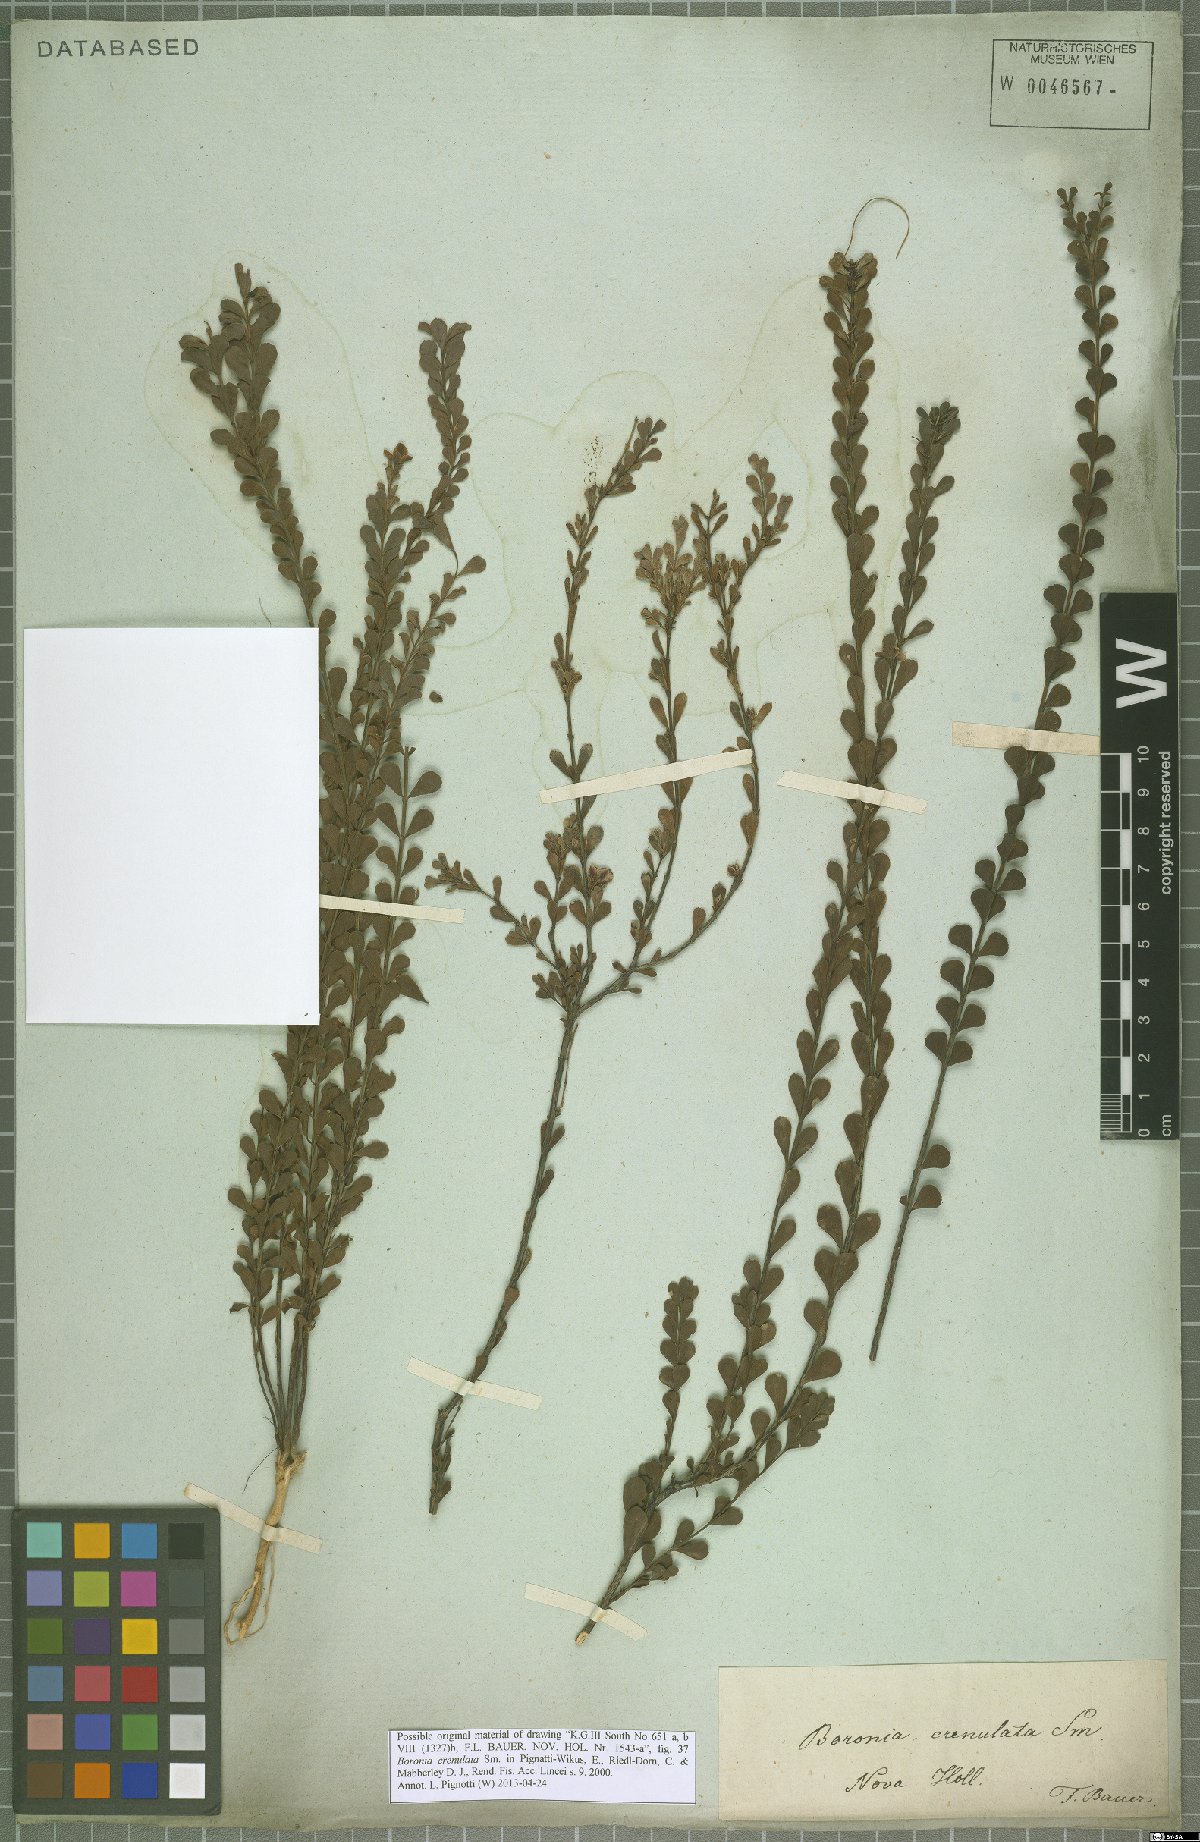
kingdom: Plantae
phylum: Tracheophyta
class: Magnoliopsida
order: Sapindales
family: Rutaceae
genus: Boronia
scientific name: Boronia crenulata
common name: Aniseed boronia
